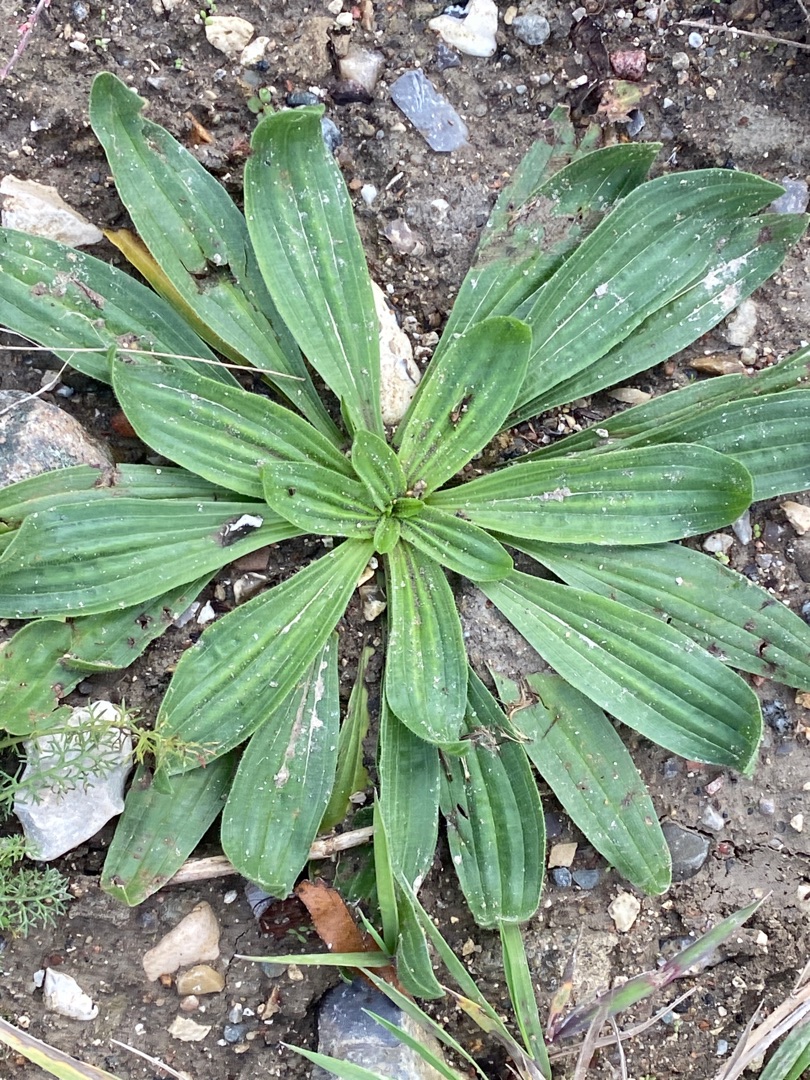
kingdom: Plantae
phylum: Tracheophyta
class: Magnoliopsida
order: Lamiales
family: Plantaginaceae
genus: Plantago
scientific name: Plantago lanceolata
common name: Lancet-vejbred
